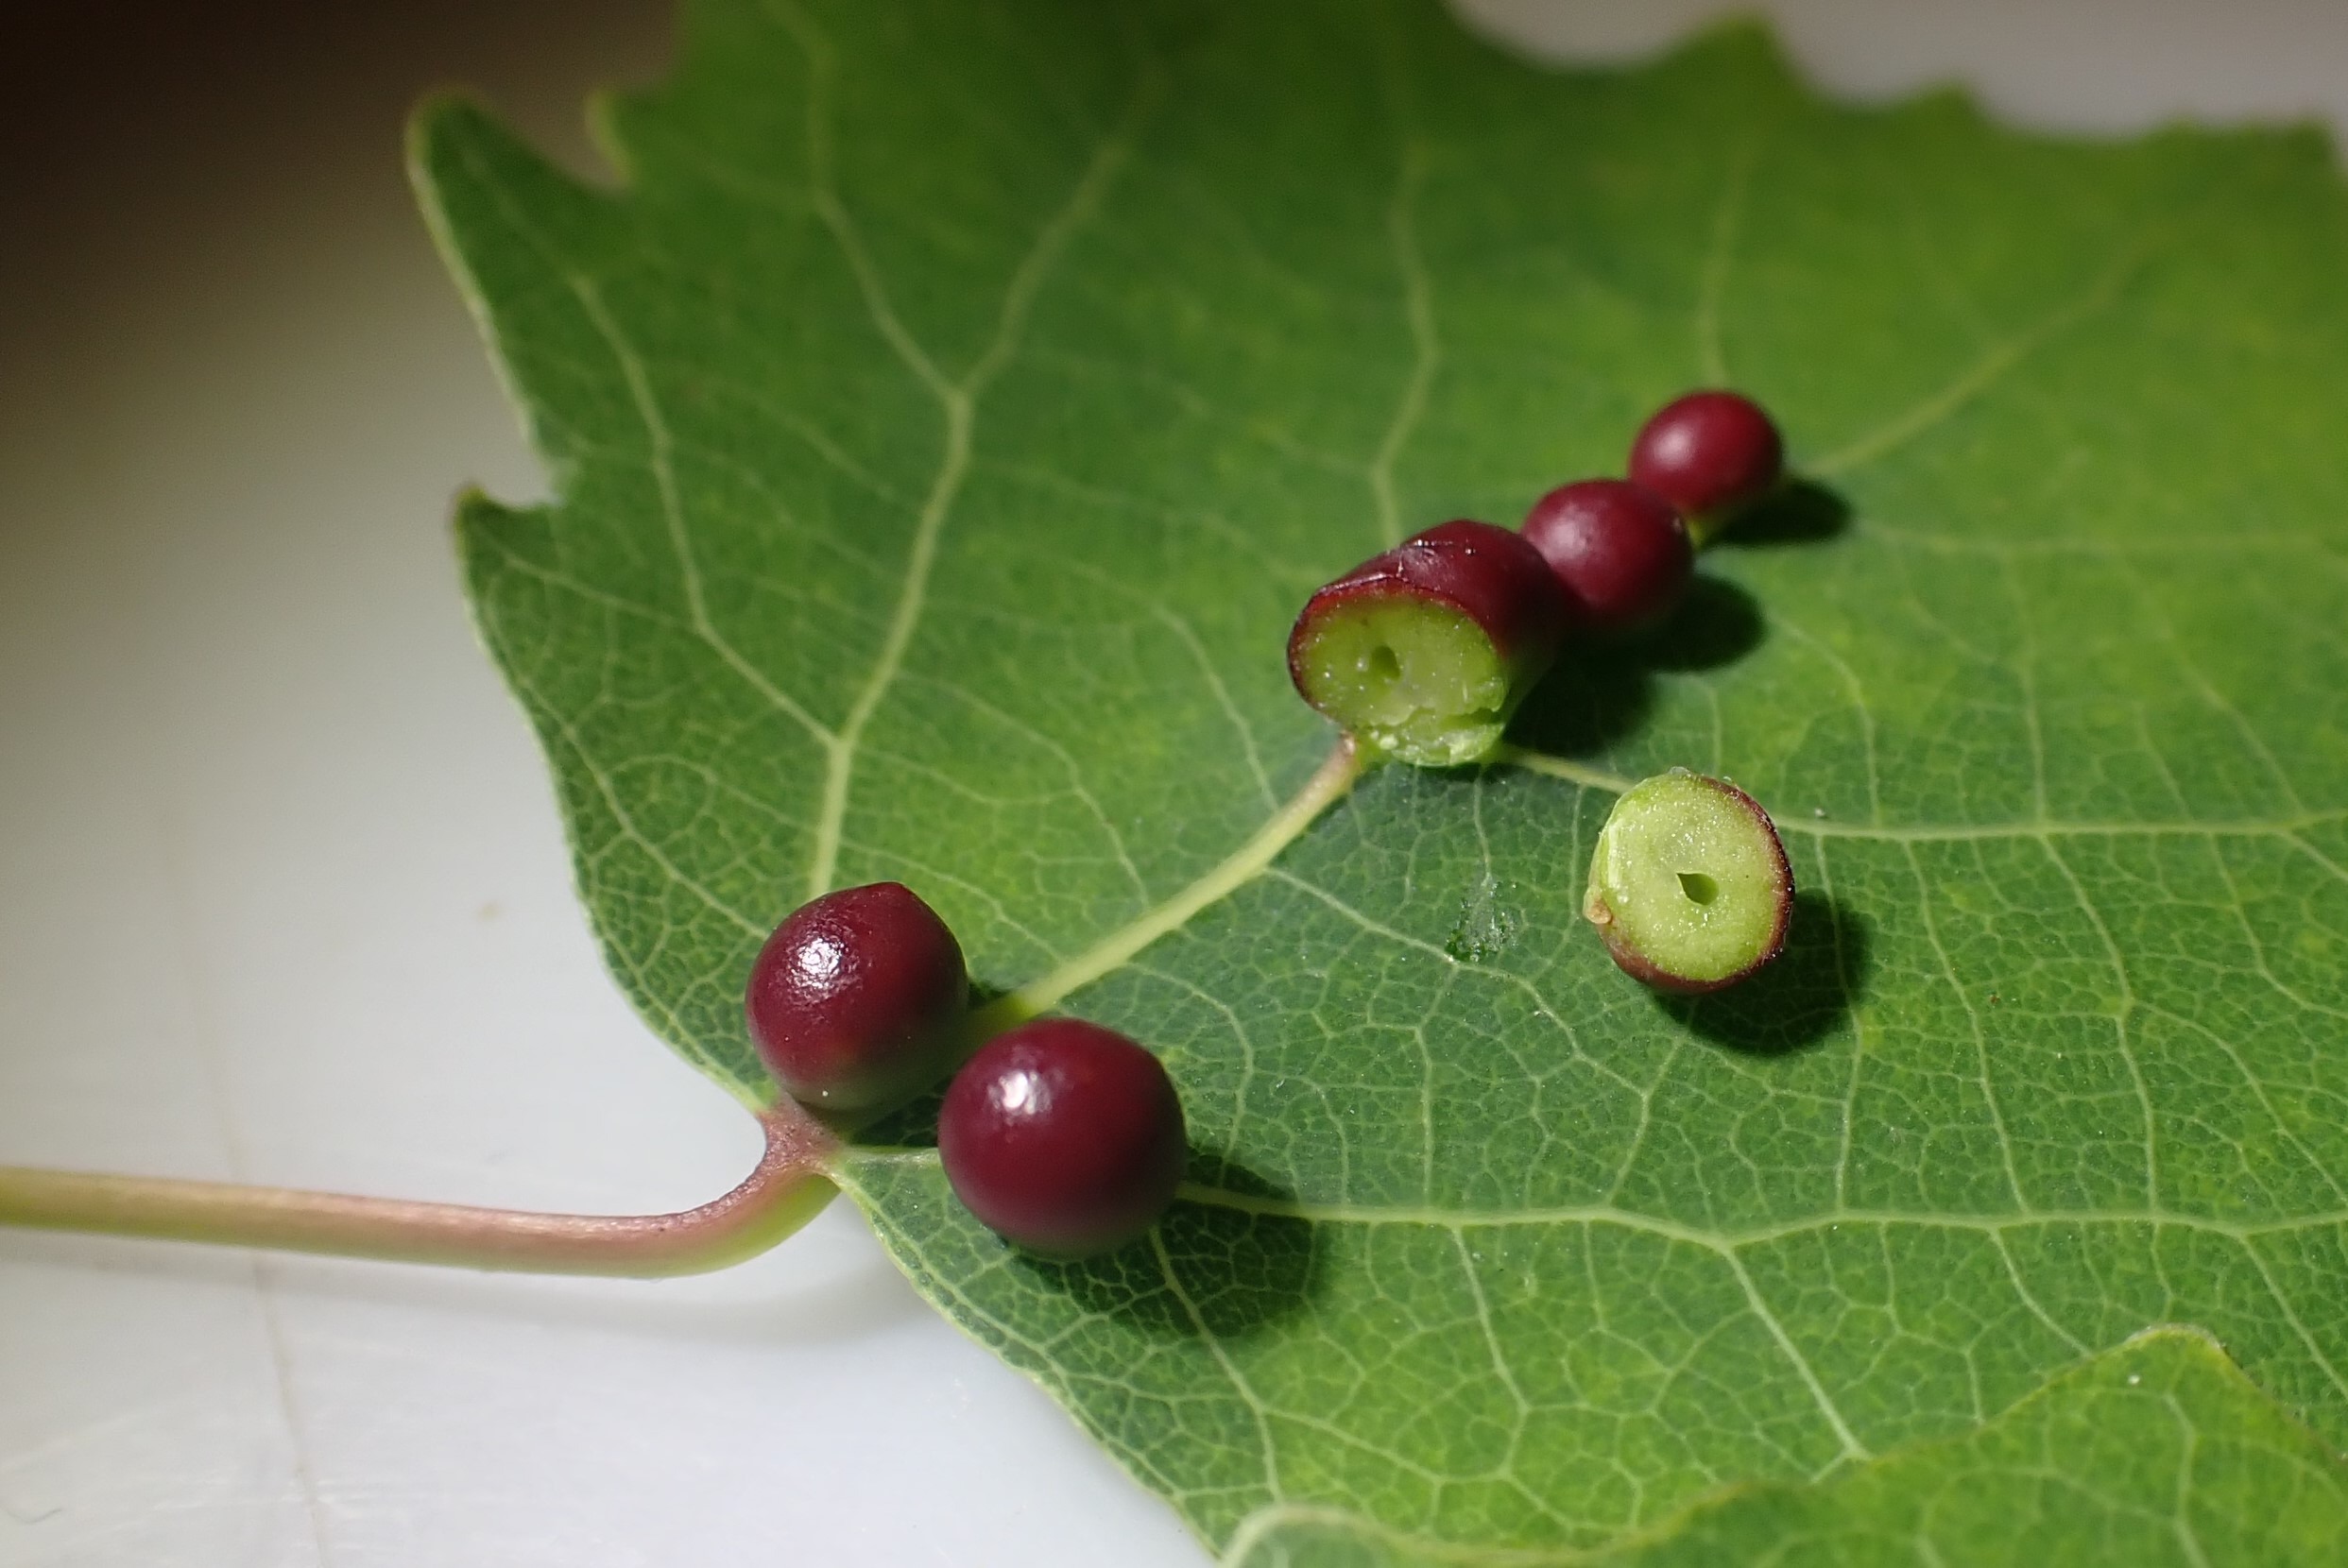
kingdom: Animalia
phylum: Arthropoda
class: Insecta
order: Diptera
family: Cecidomyiidae
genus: Harmandiola
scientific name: Harmandiola tremulae
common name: Aspekuglegalmyg
